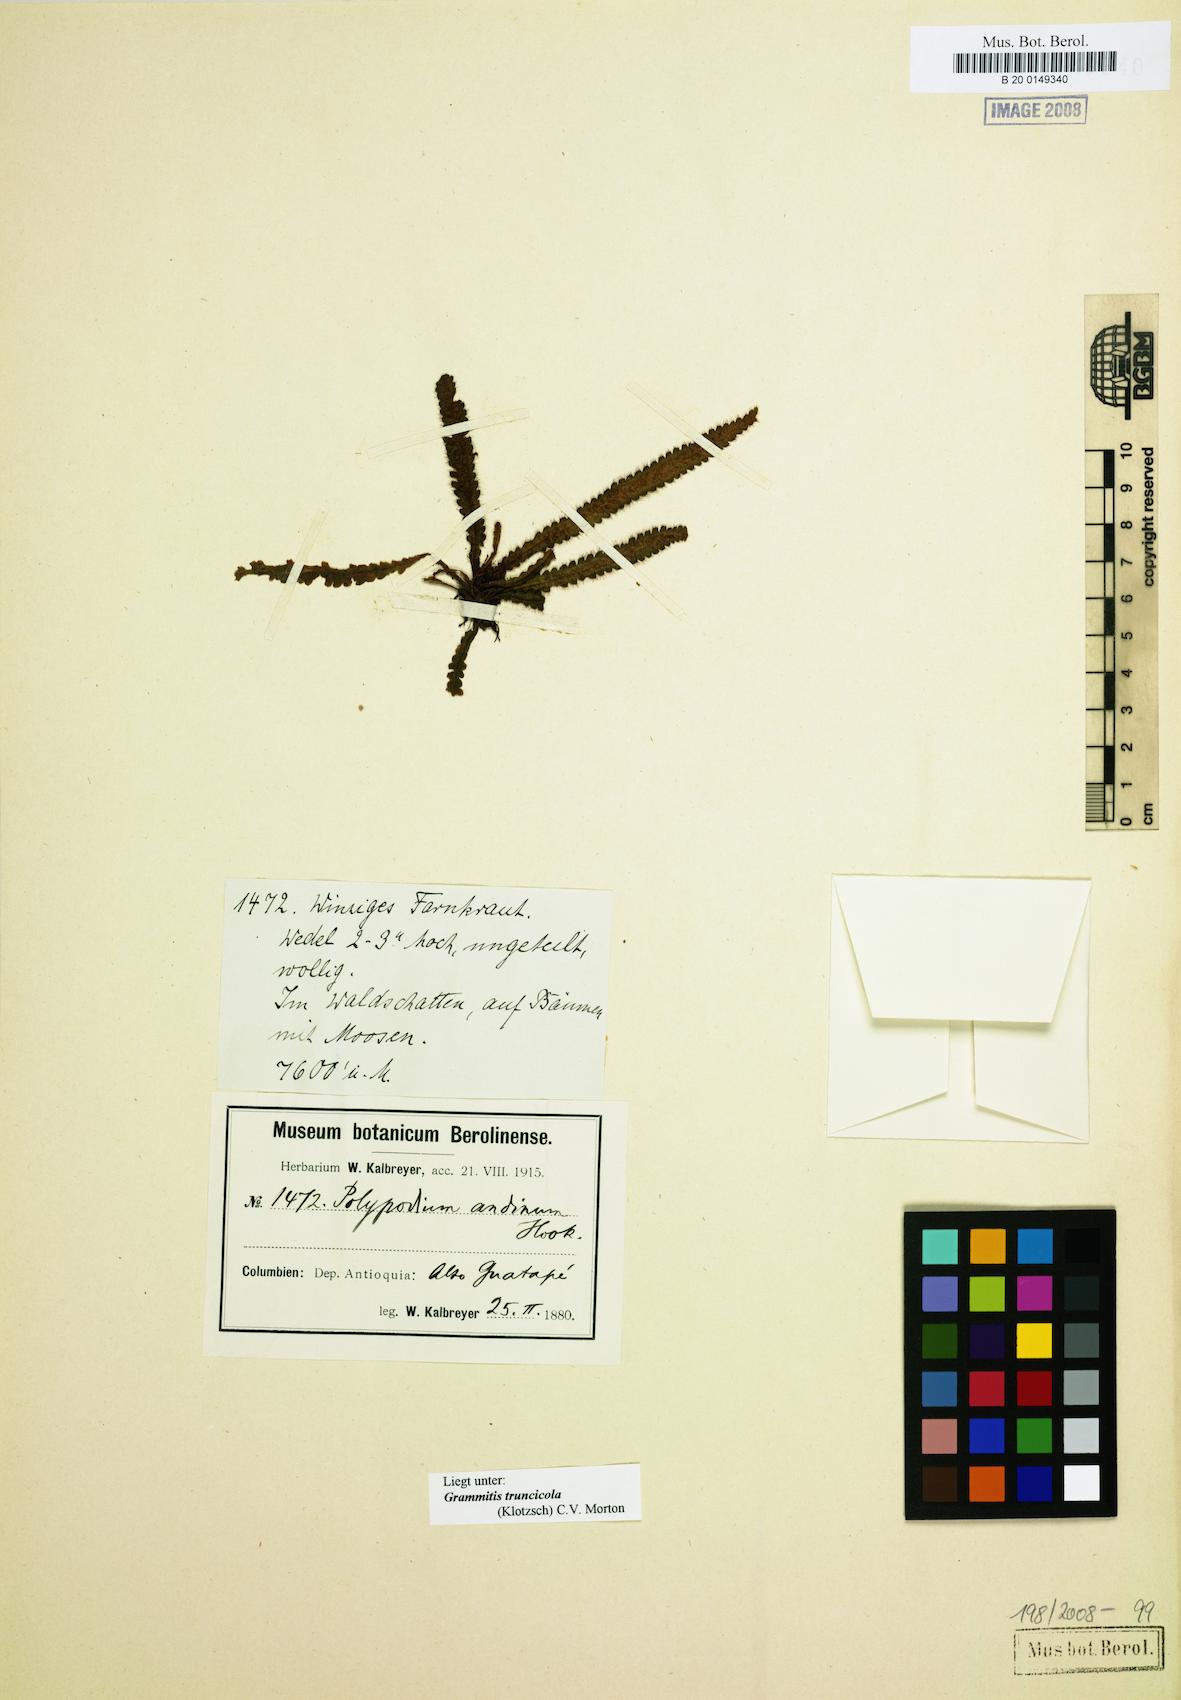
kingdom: Plantae
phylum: Tracheophyta
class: Polypodiopsida
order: Polypodiales
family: Polypodiaceae
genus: Moranopteris
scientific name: Moranopteris truncicola
